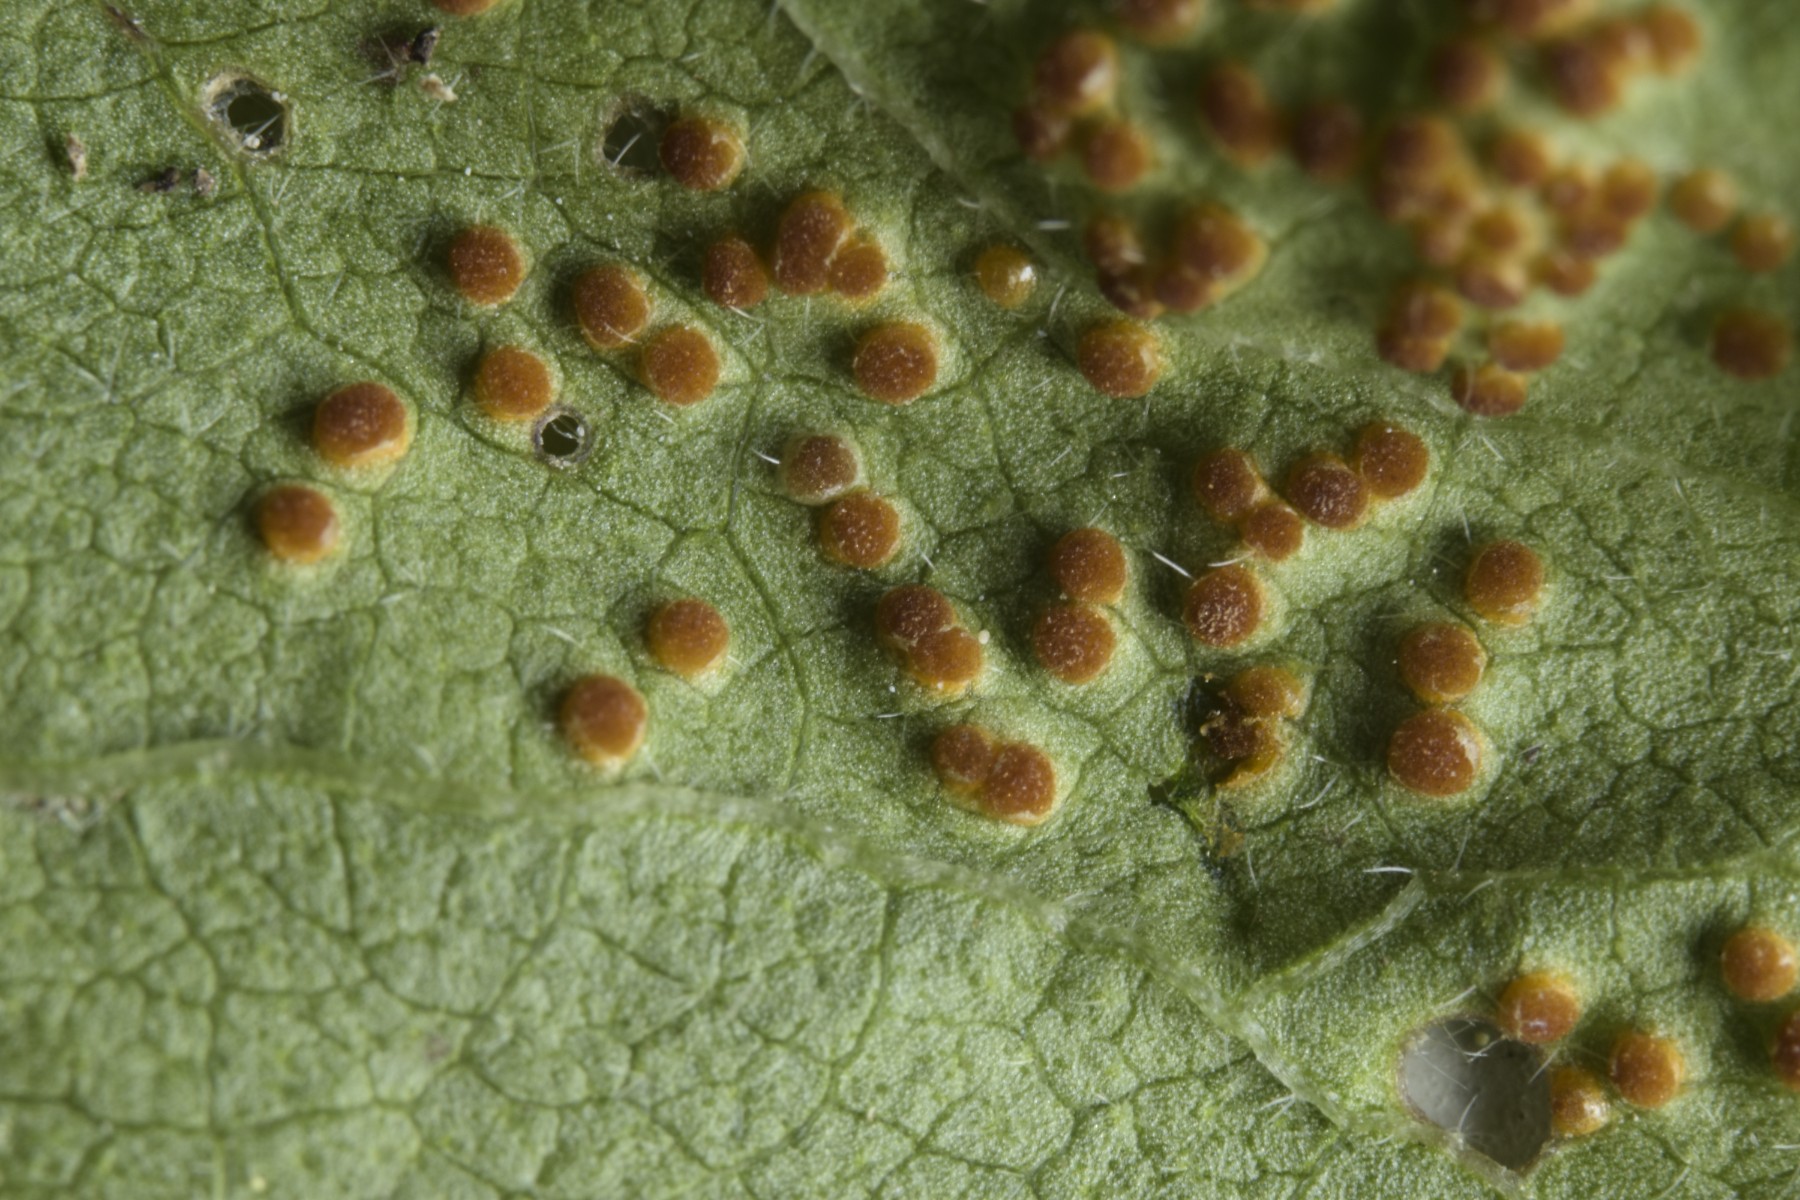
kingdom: Fungi
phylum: Basidiomycota
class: Pucciniomycetes
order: Pucciniales
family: Pucciniaceae
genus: Puccinia
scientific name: Puccinia malvacearum
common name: stokrose-tvecellerust
